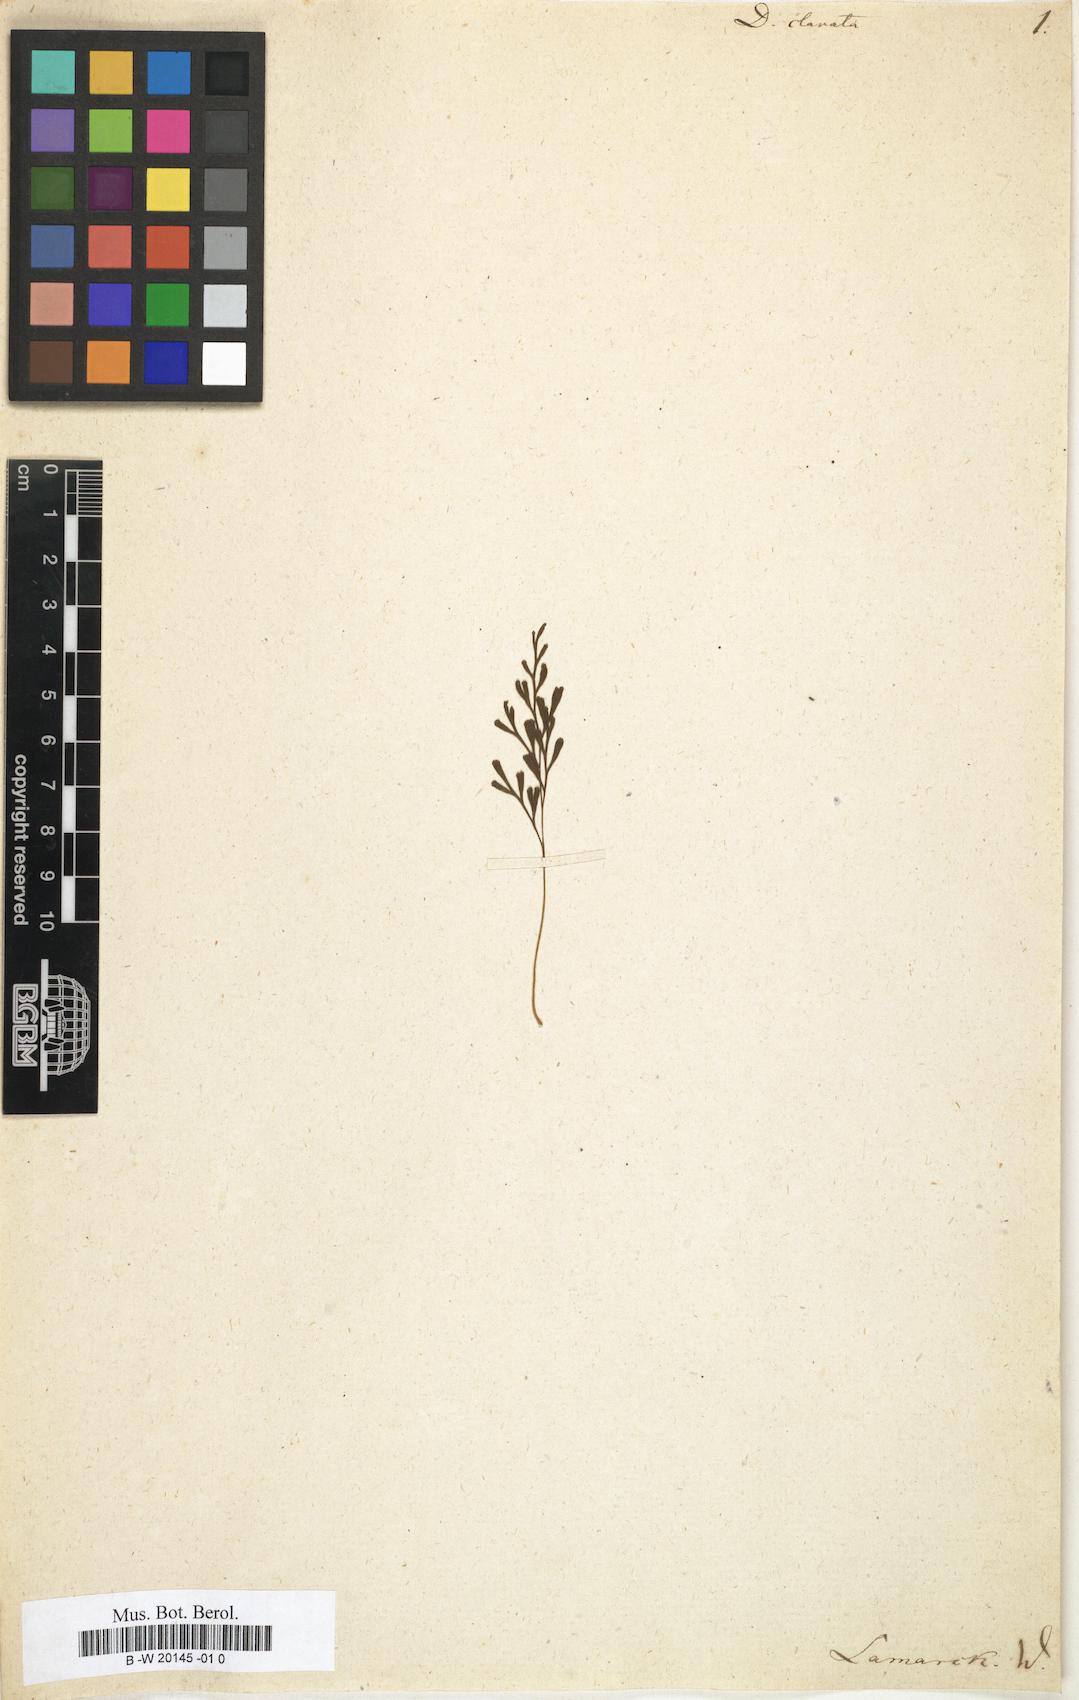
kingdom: Plantae
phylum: Tracheophyta
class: Polypodiopsida
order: Polypodiales
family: Davalliaceae
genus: Davallia
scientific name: Davallia clavata
